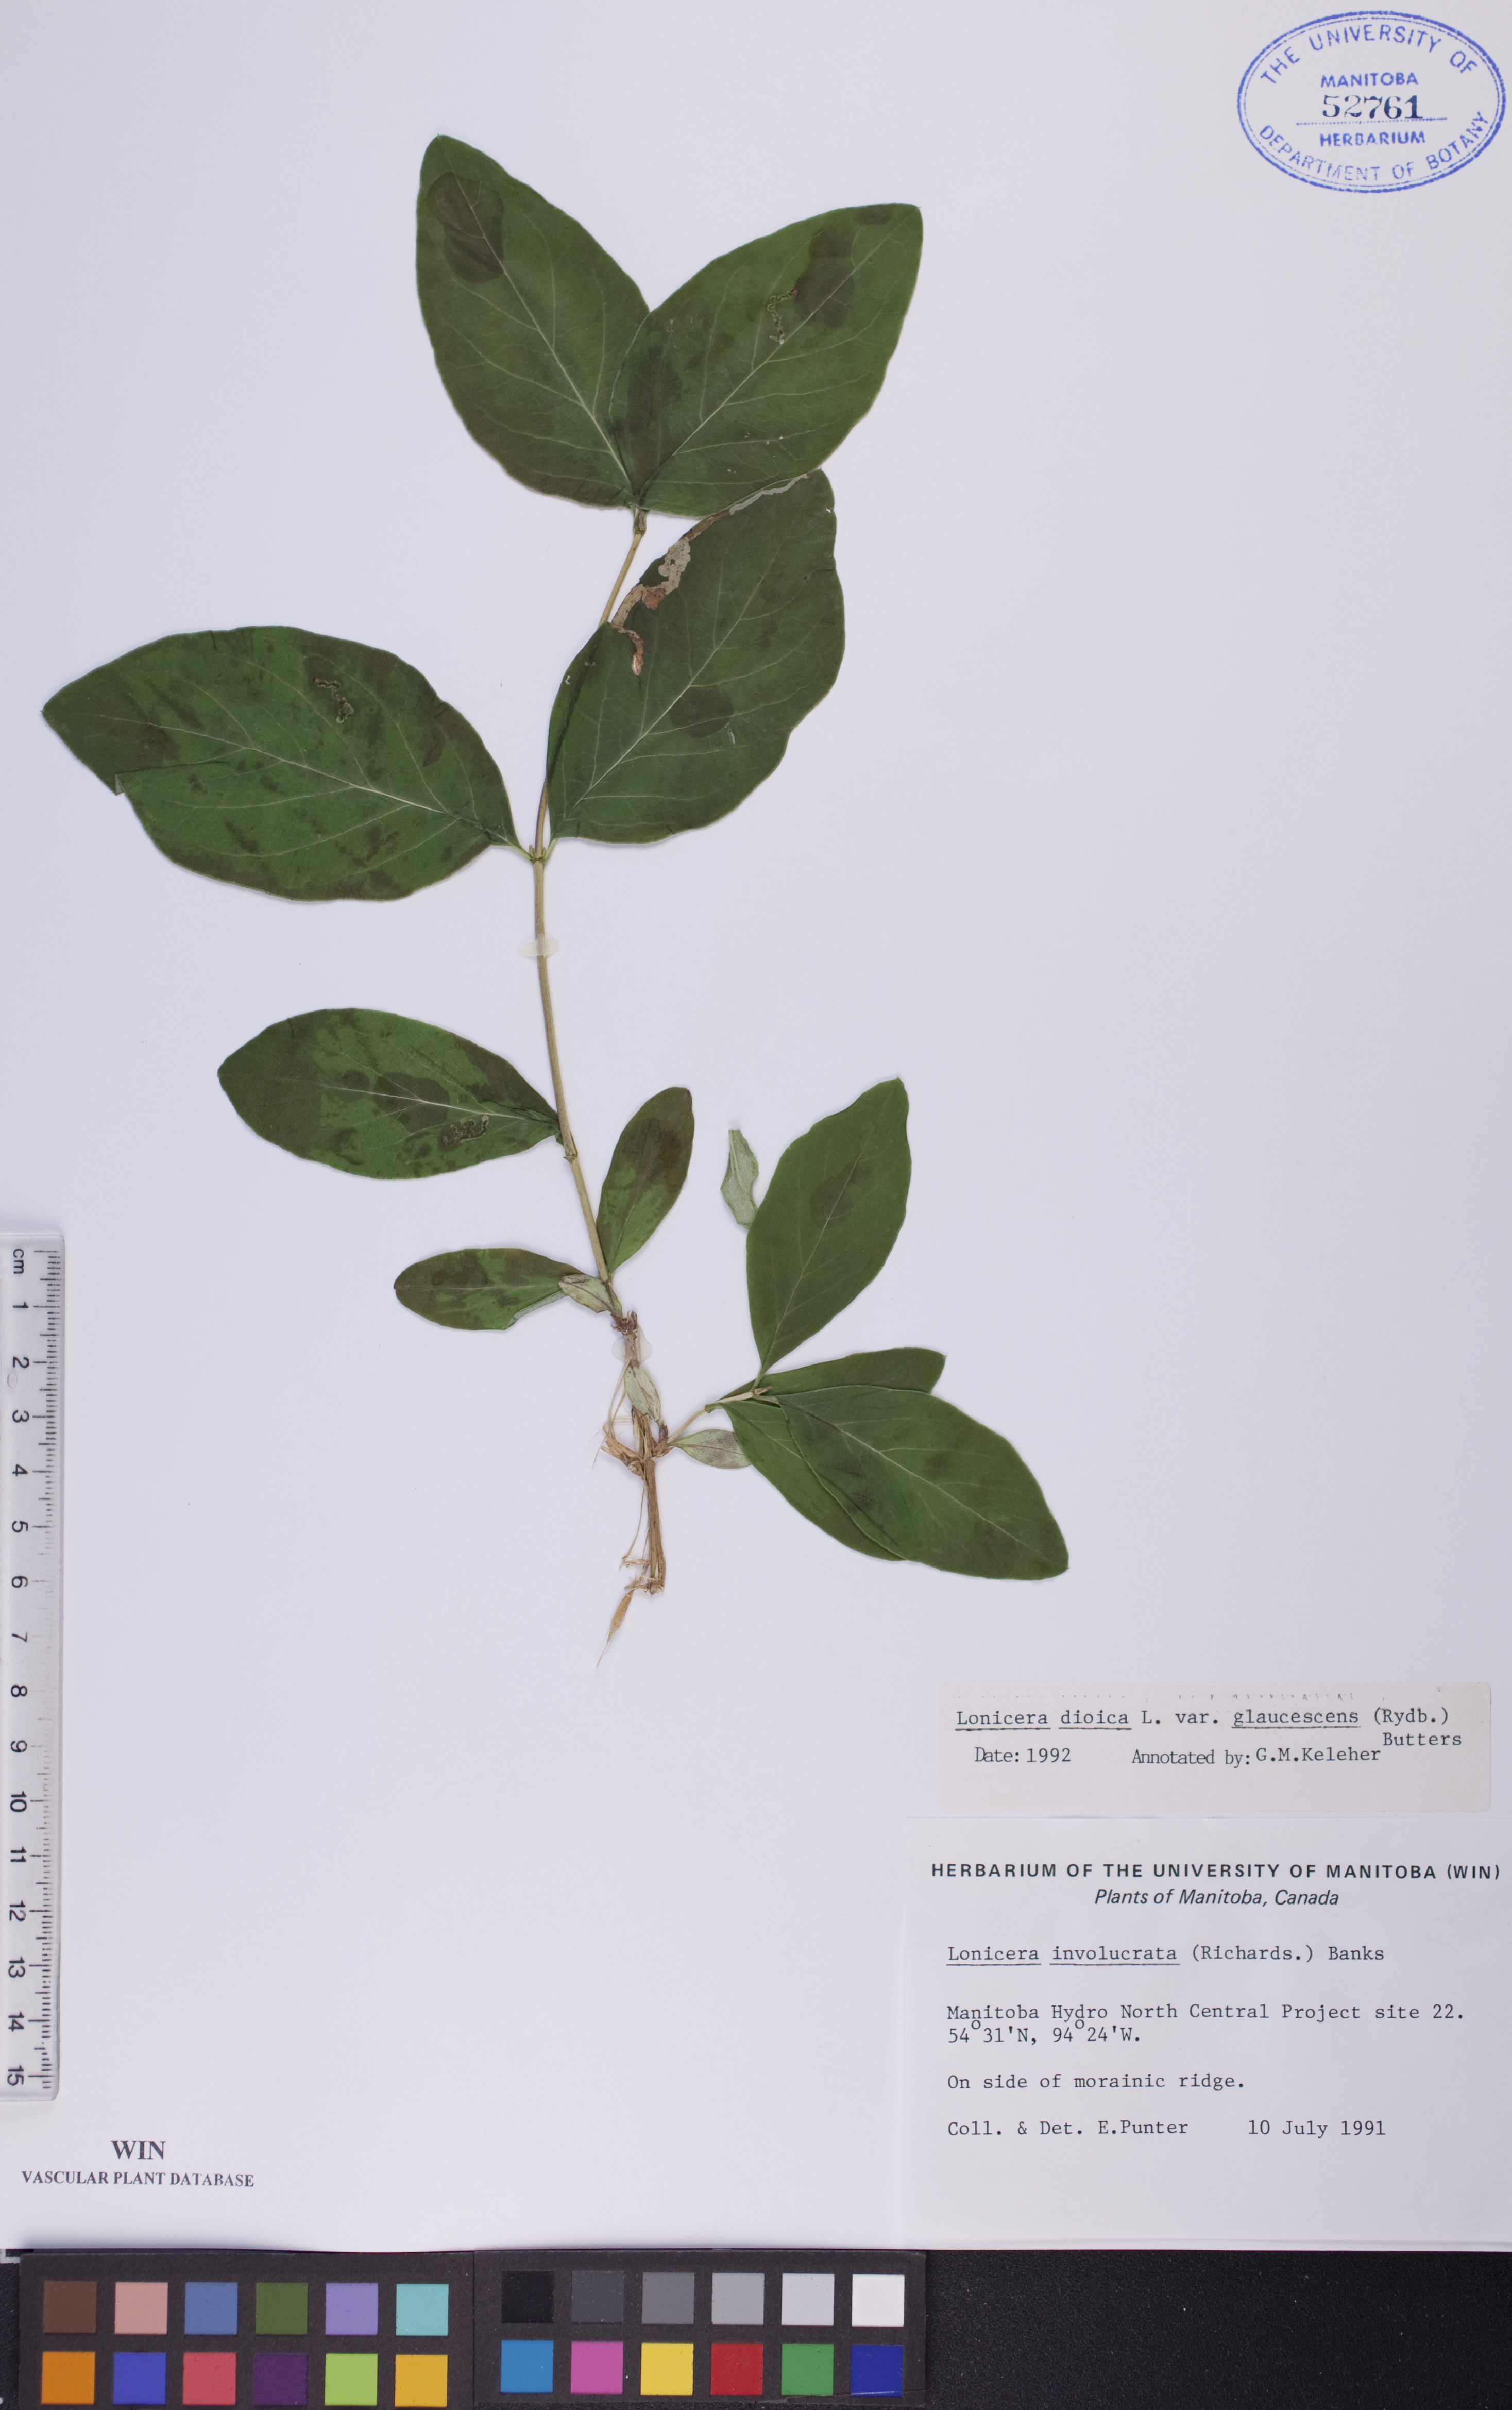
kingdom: Plantae
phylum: Tracheophyta
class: Magnoliopsida
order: Dipsacales
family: Caprifoliaceae
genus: Lonicera
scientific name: Lonicera dioica
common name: Limber honeysuckle
